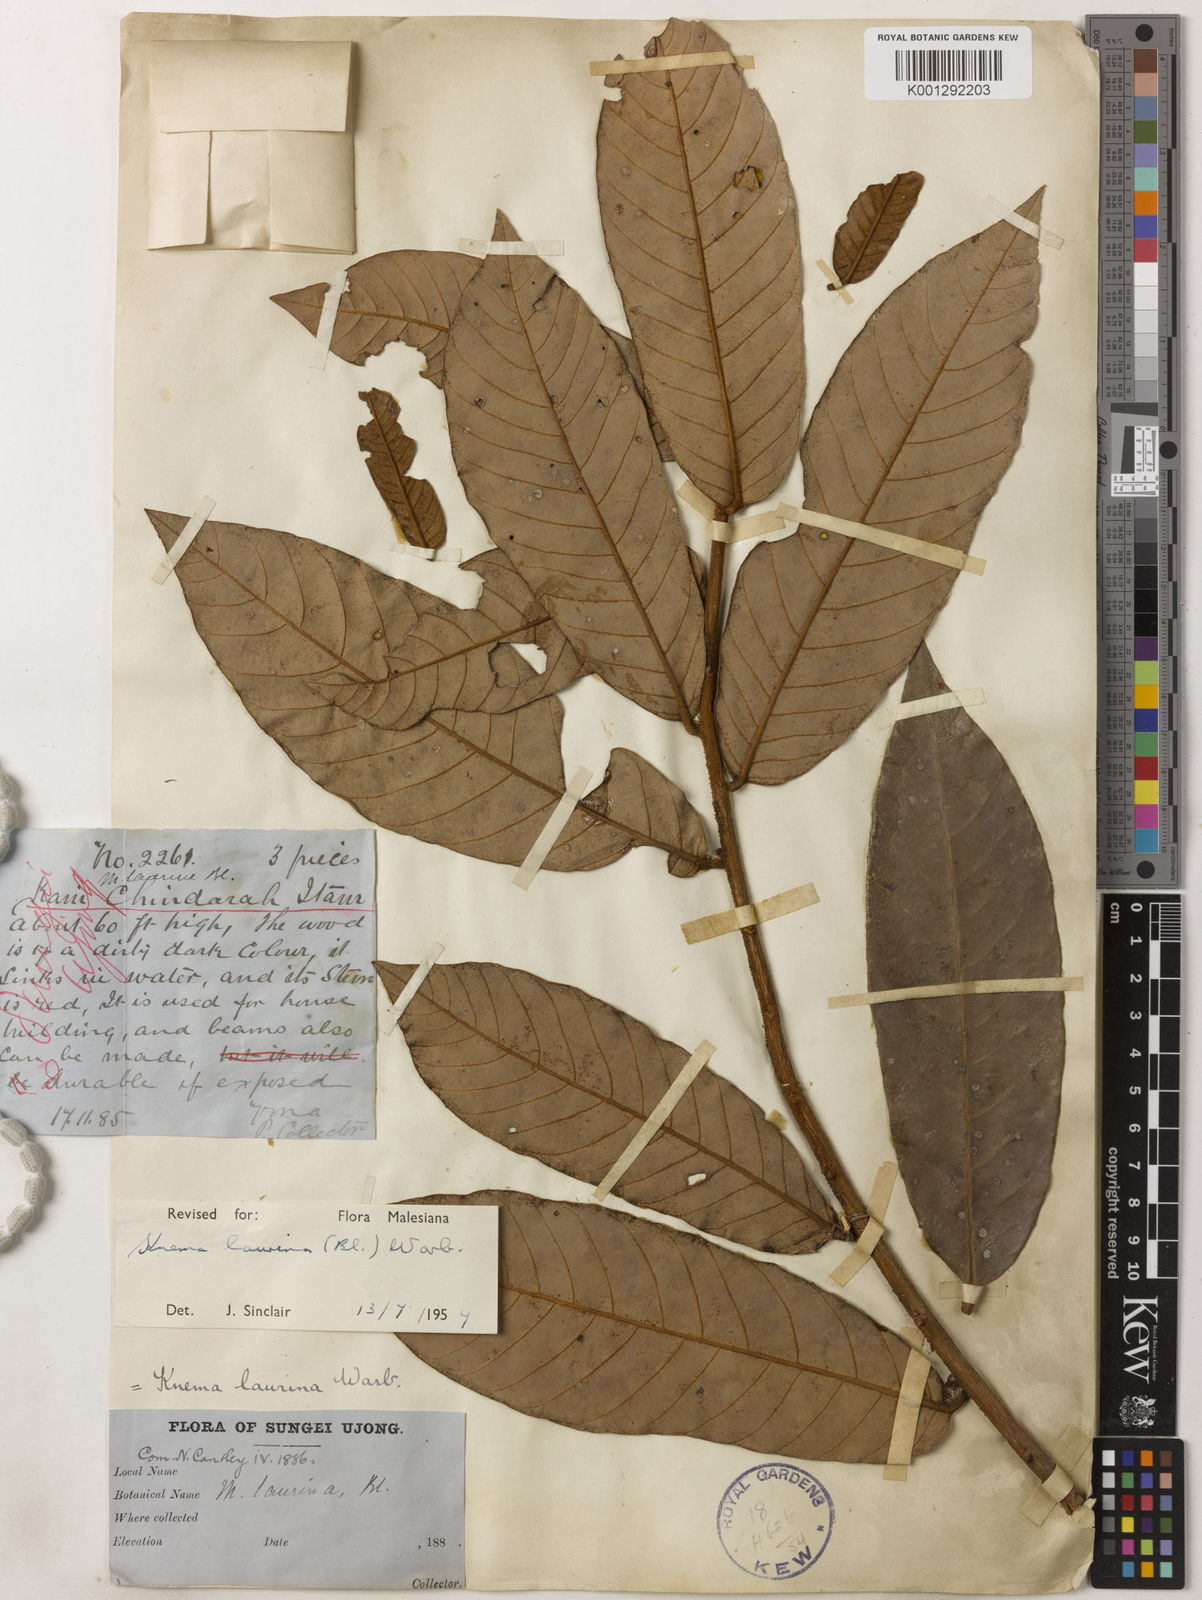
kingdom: Plantae
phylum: Tracheophyta
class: Magnoliopsida
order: Magnoliales
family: Myristicaceae
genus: Knema
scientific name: Knema laurina
